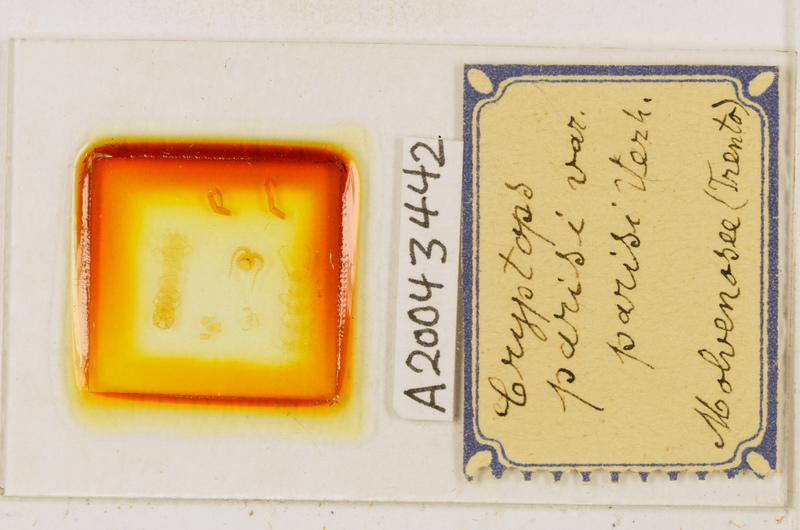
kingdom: Animalia
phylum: Arthropoda
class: Chilopoda
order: Scolopendromorpha
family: Cryptopidae
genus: Cryptops
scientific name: Cryptops parisi
